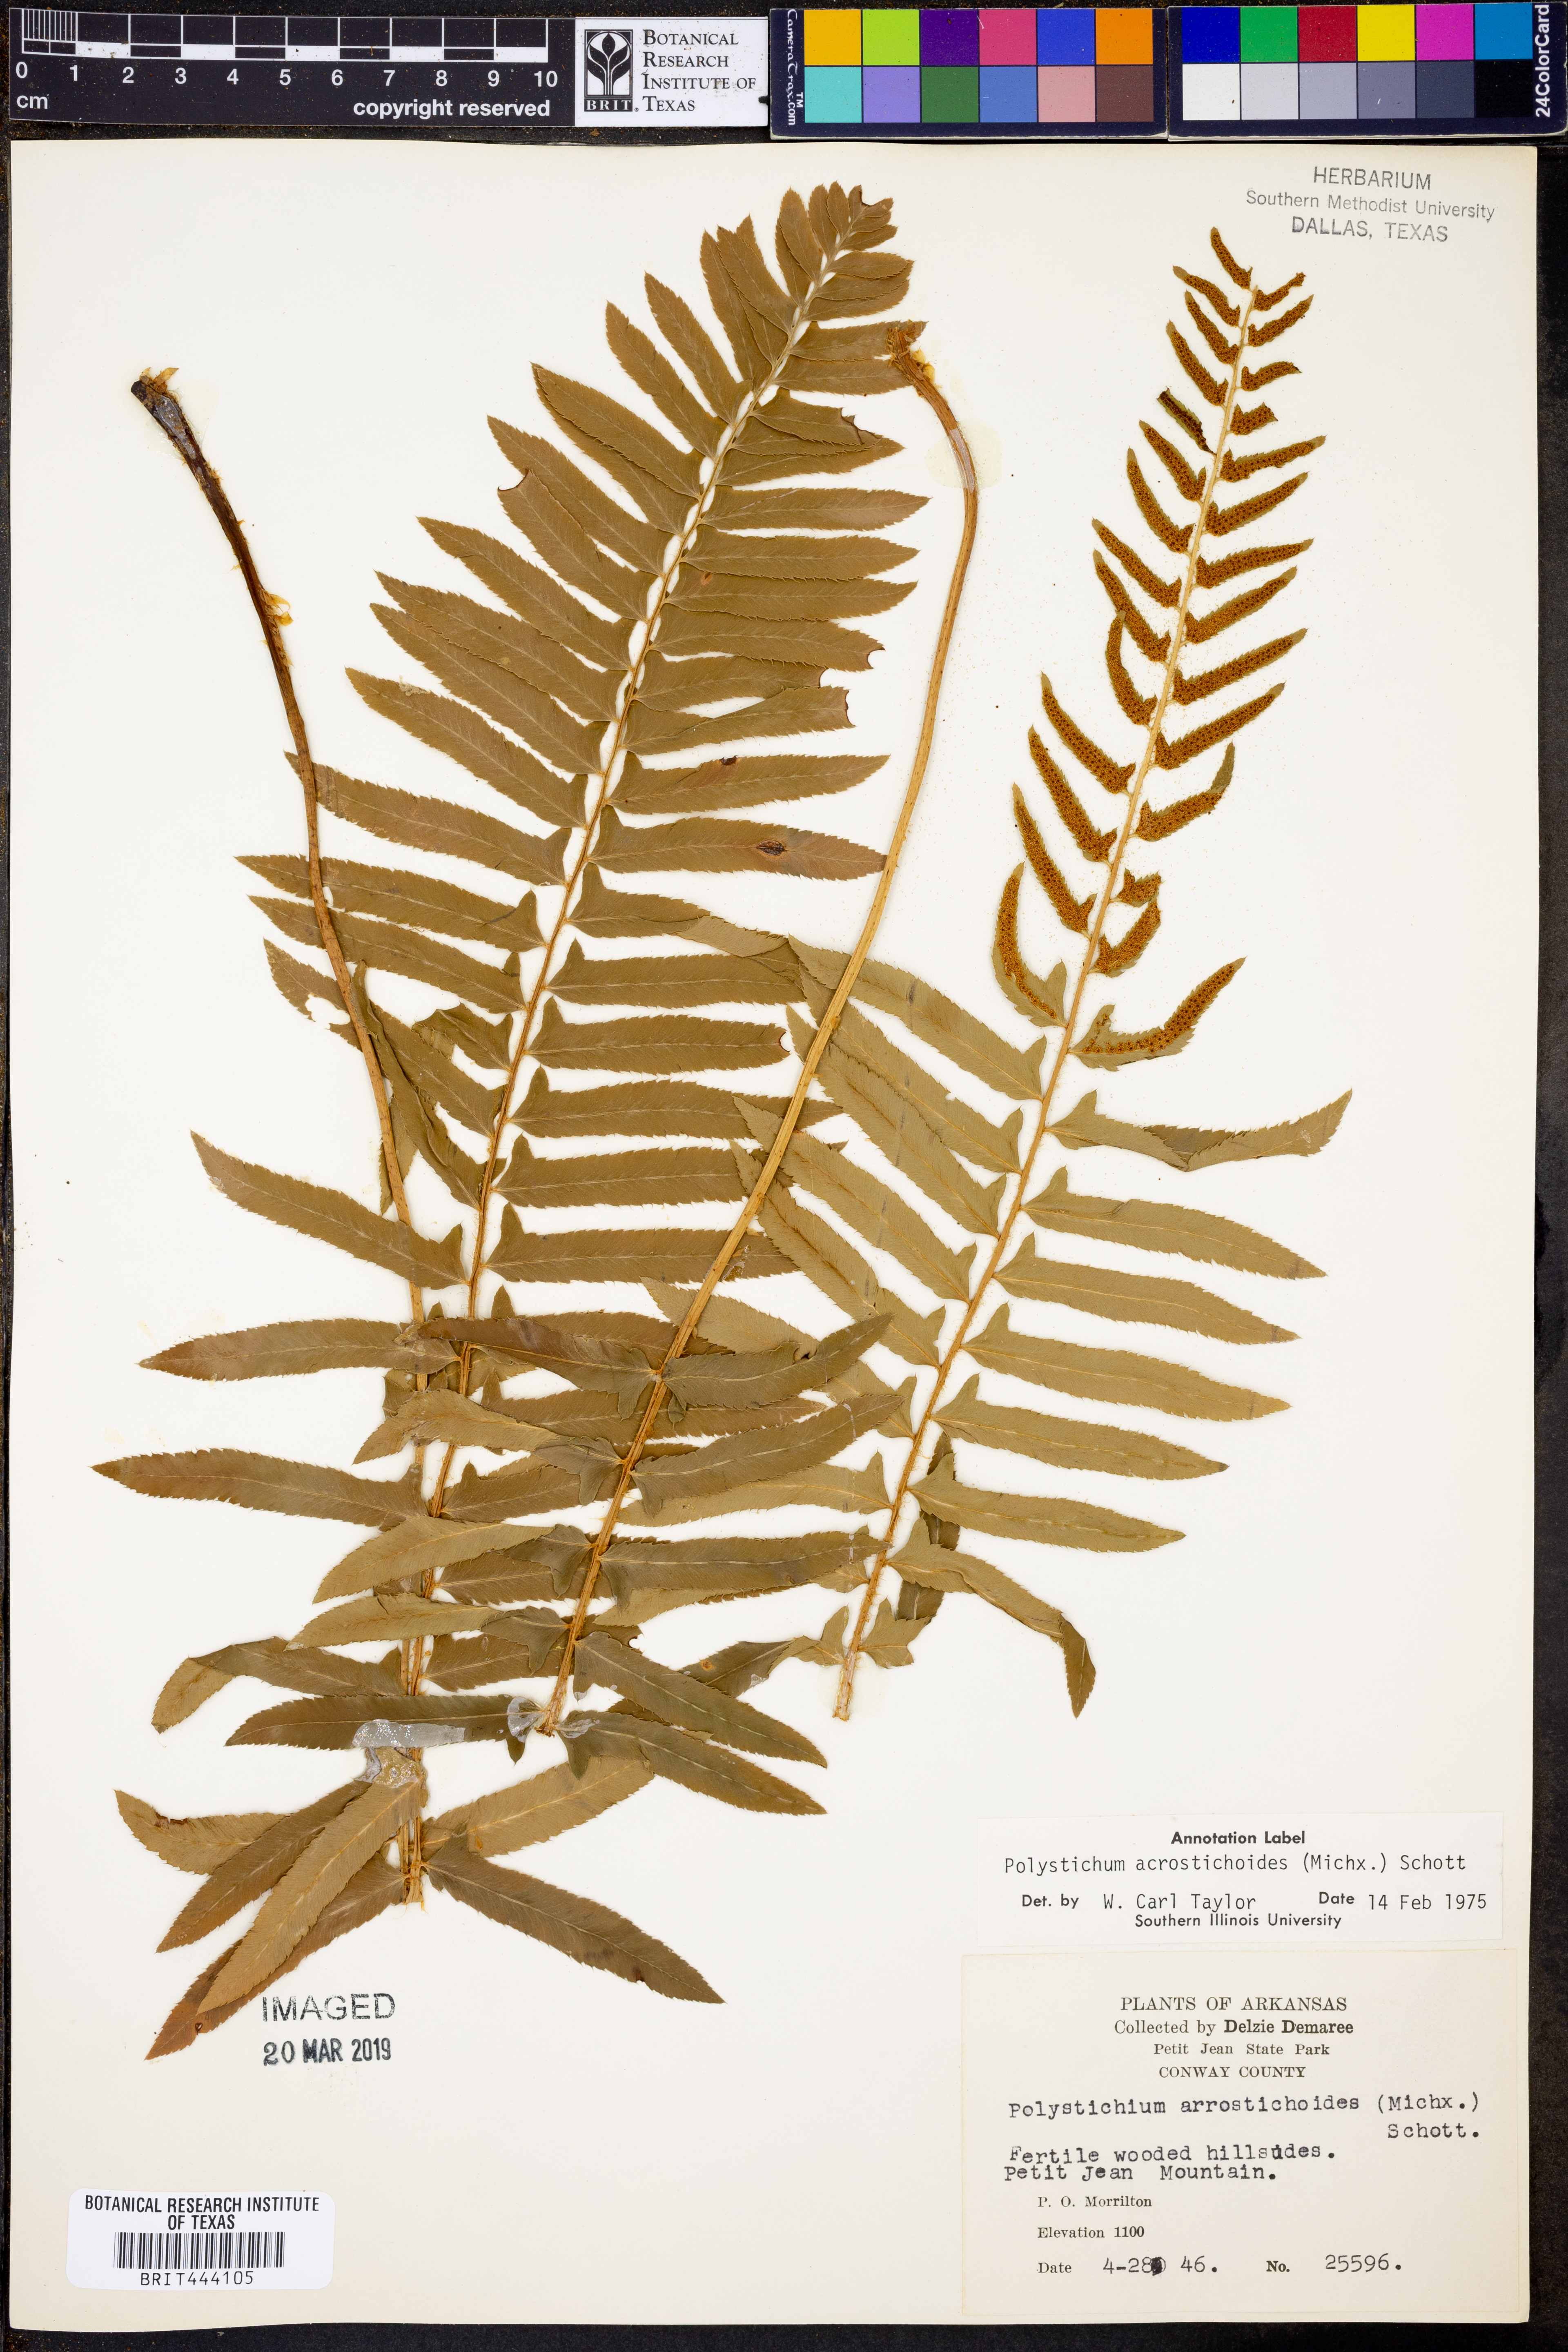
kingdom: Plantae
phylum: Tracheophyta
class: Polypodiopsida
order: Polypodiales
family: Dryopteridaceae
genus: Polystichum
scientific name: Polystichum acrostichoides
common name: Christmas fern
